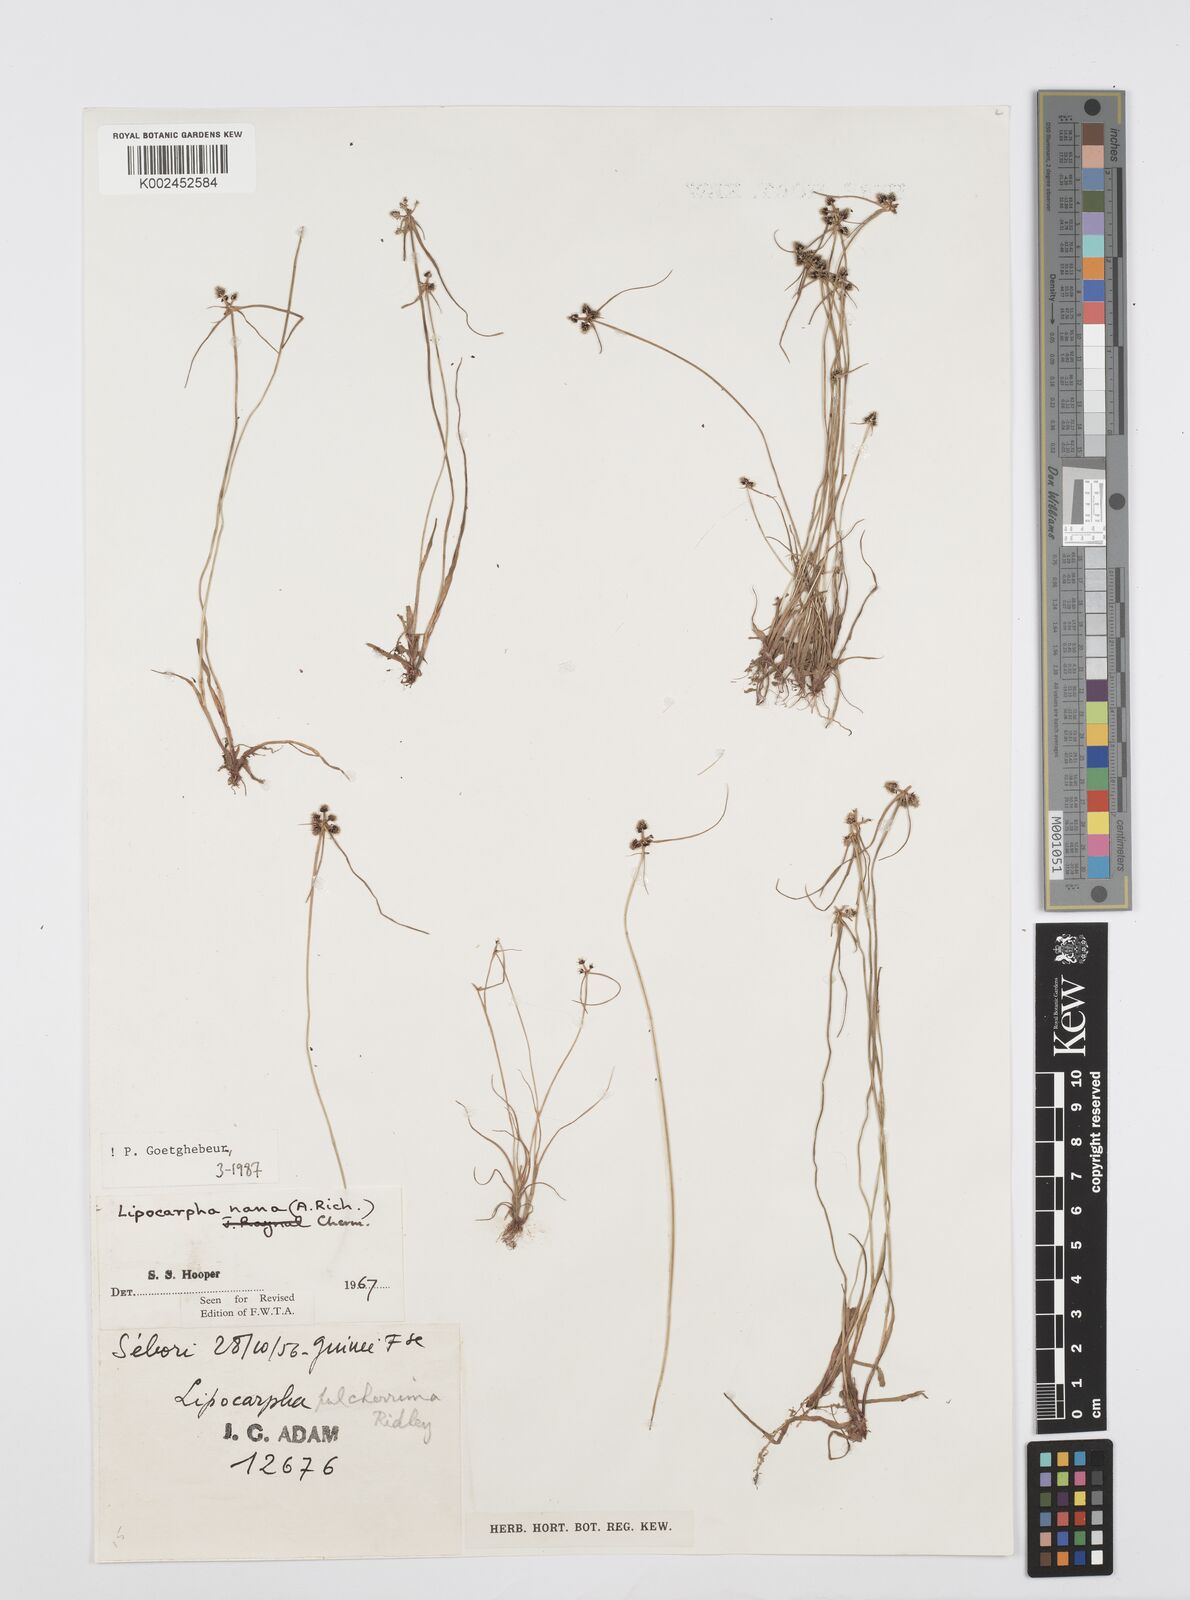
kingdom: Plantae
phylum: Tracheophyta
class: Liliopsida
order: Poales
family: Cyperaceae
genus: Cyperus
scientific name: Cyperus persquarrosus
